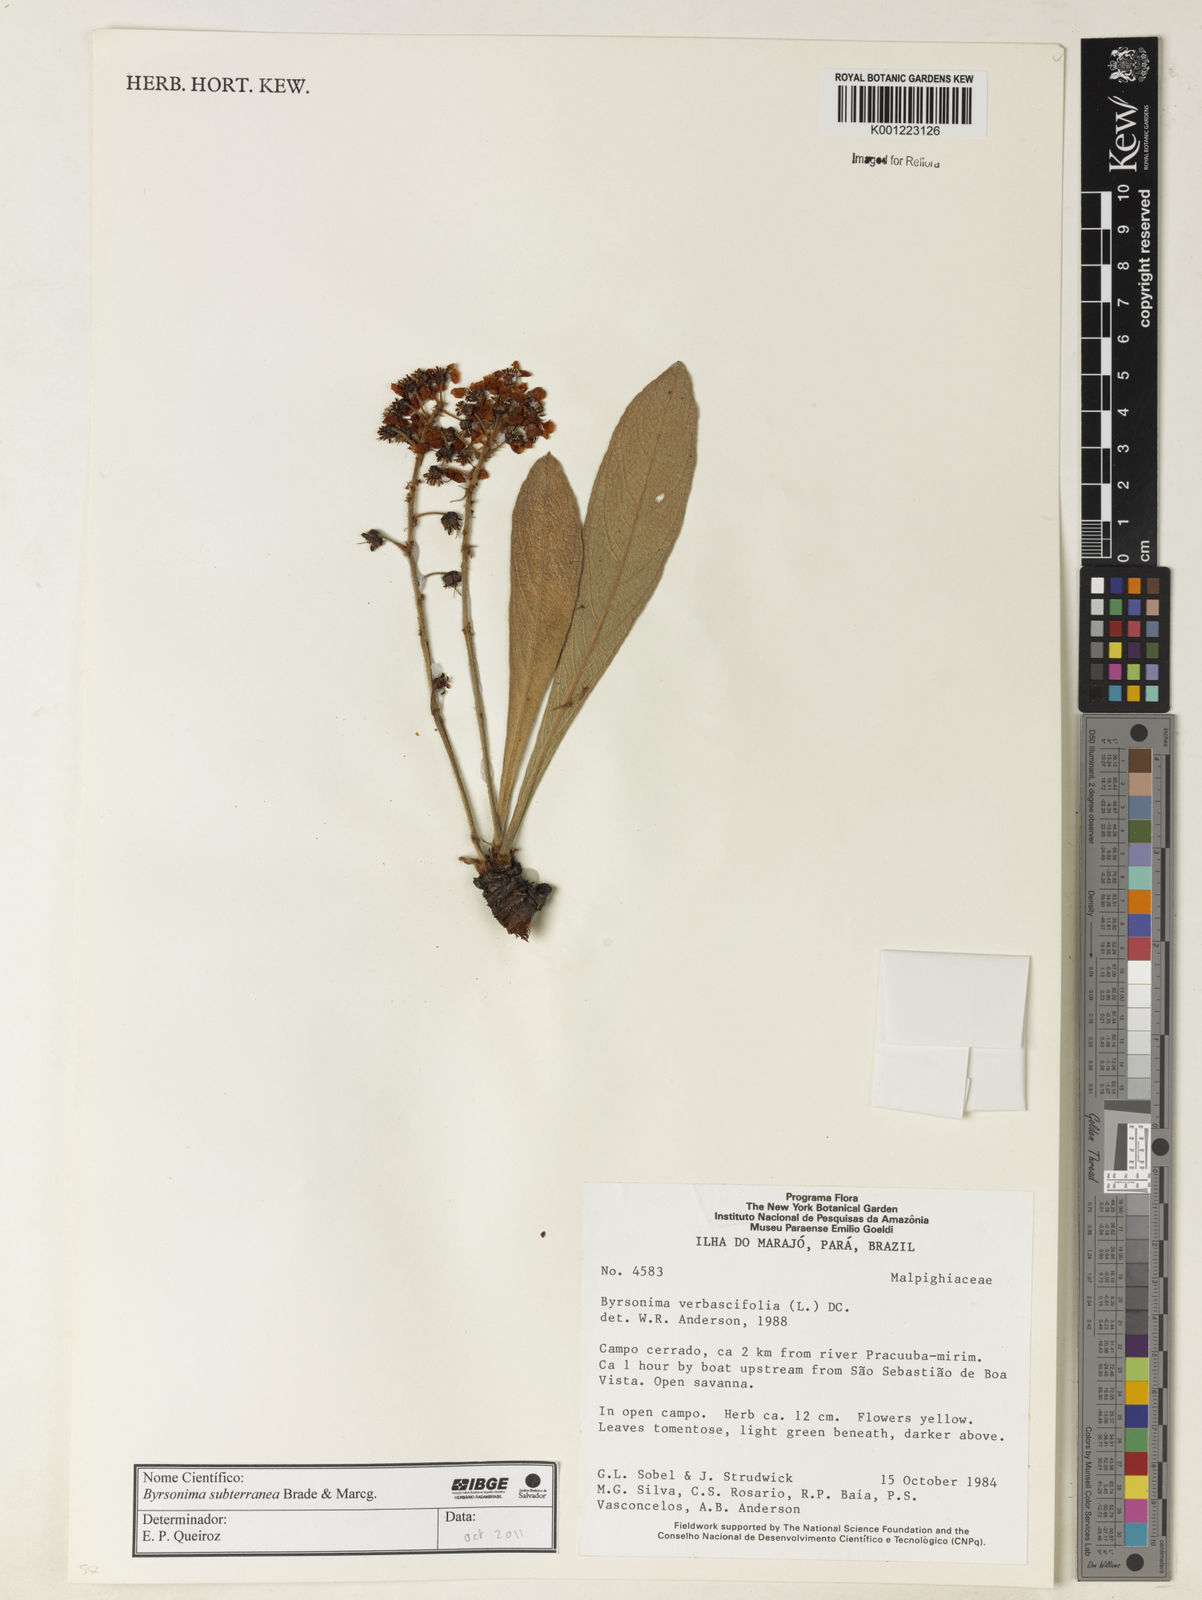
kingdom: Plantae
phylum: Tracheophyta
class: Magnoliopsida
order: Malpighiales
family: Malpighiaceae
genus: Byrsonima
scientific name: Byrsonima subterranea
